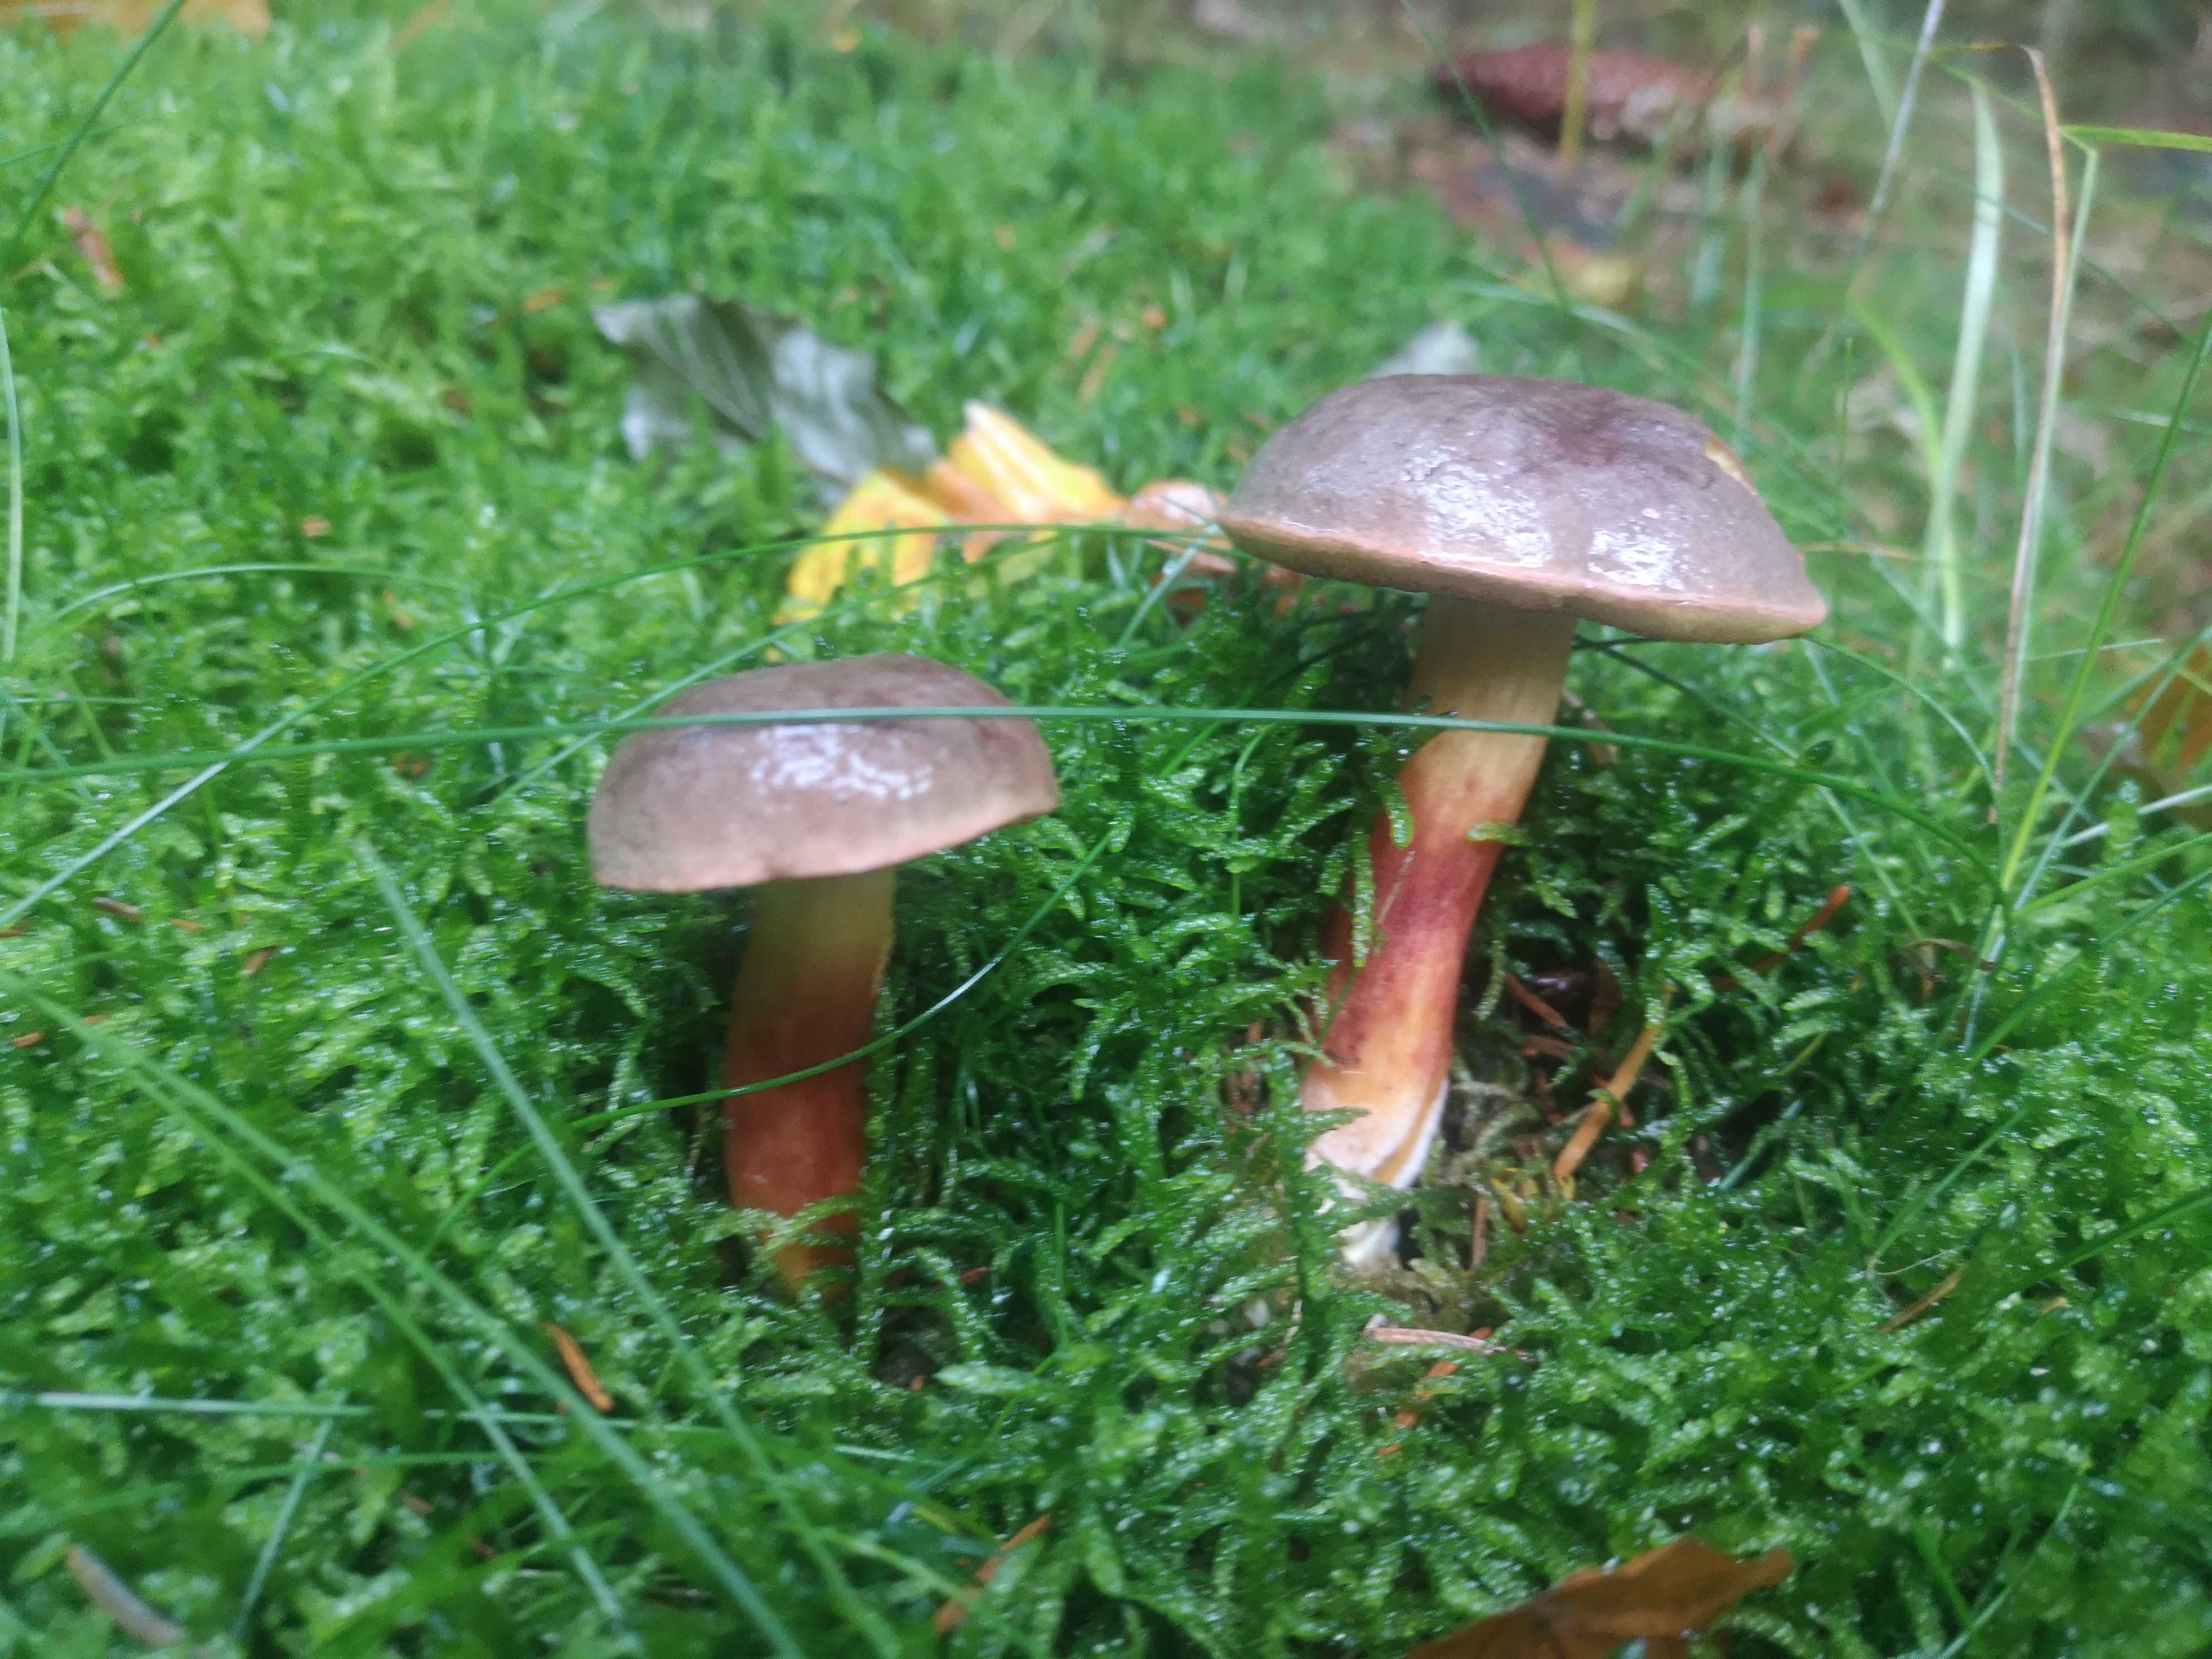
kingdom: Fungi
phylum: Basidiomycota
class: Agaricomycetes
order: Boletales
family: Boletaceae
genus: Xerocomellus
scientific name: Xerocomellus
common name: dværgrørhat
